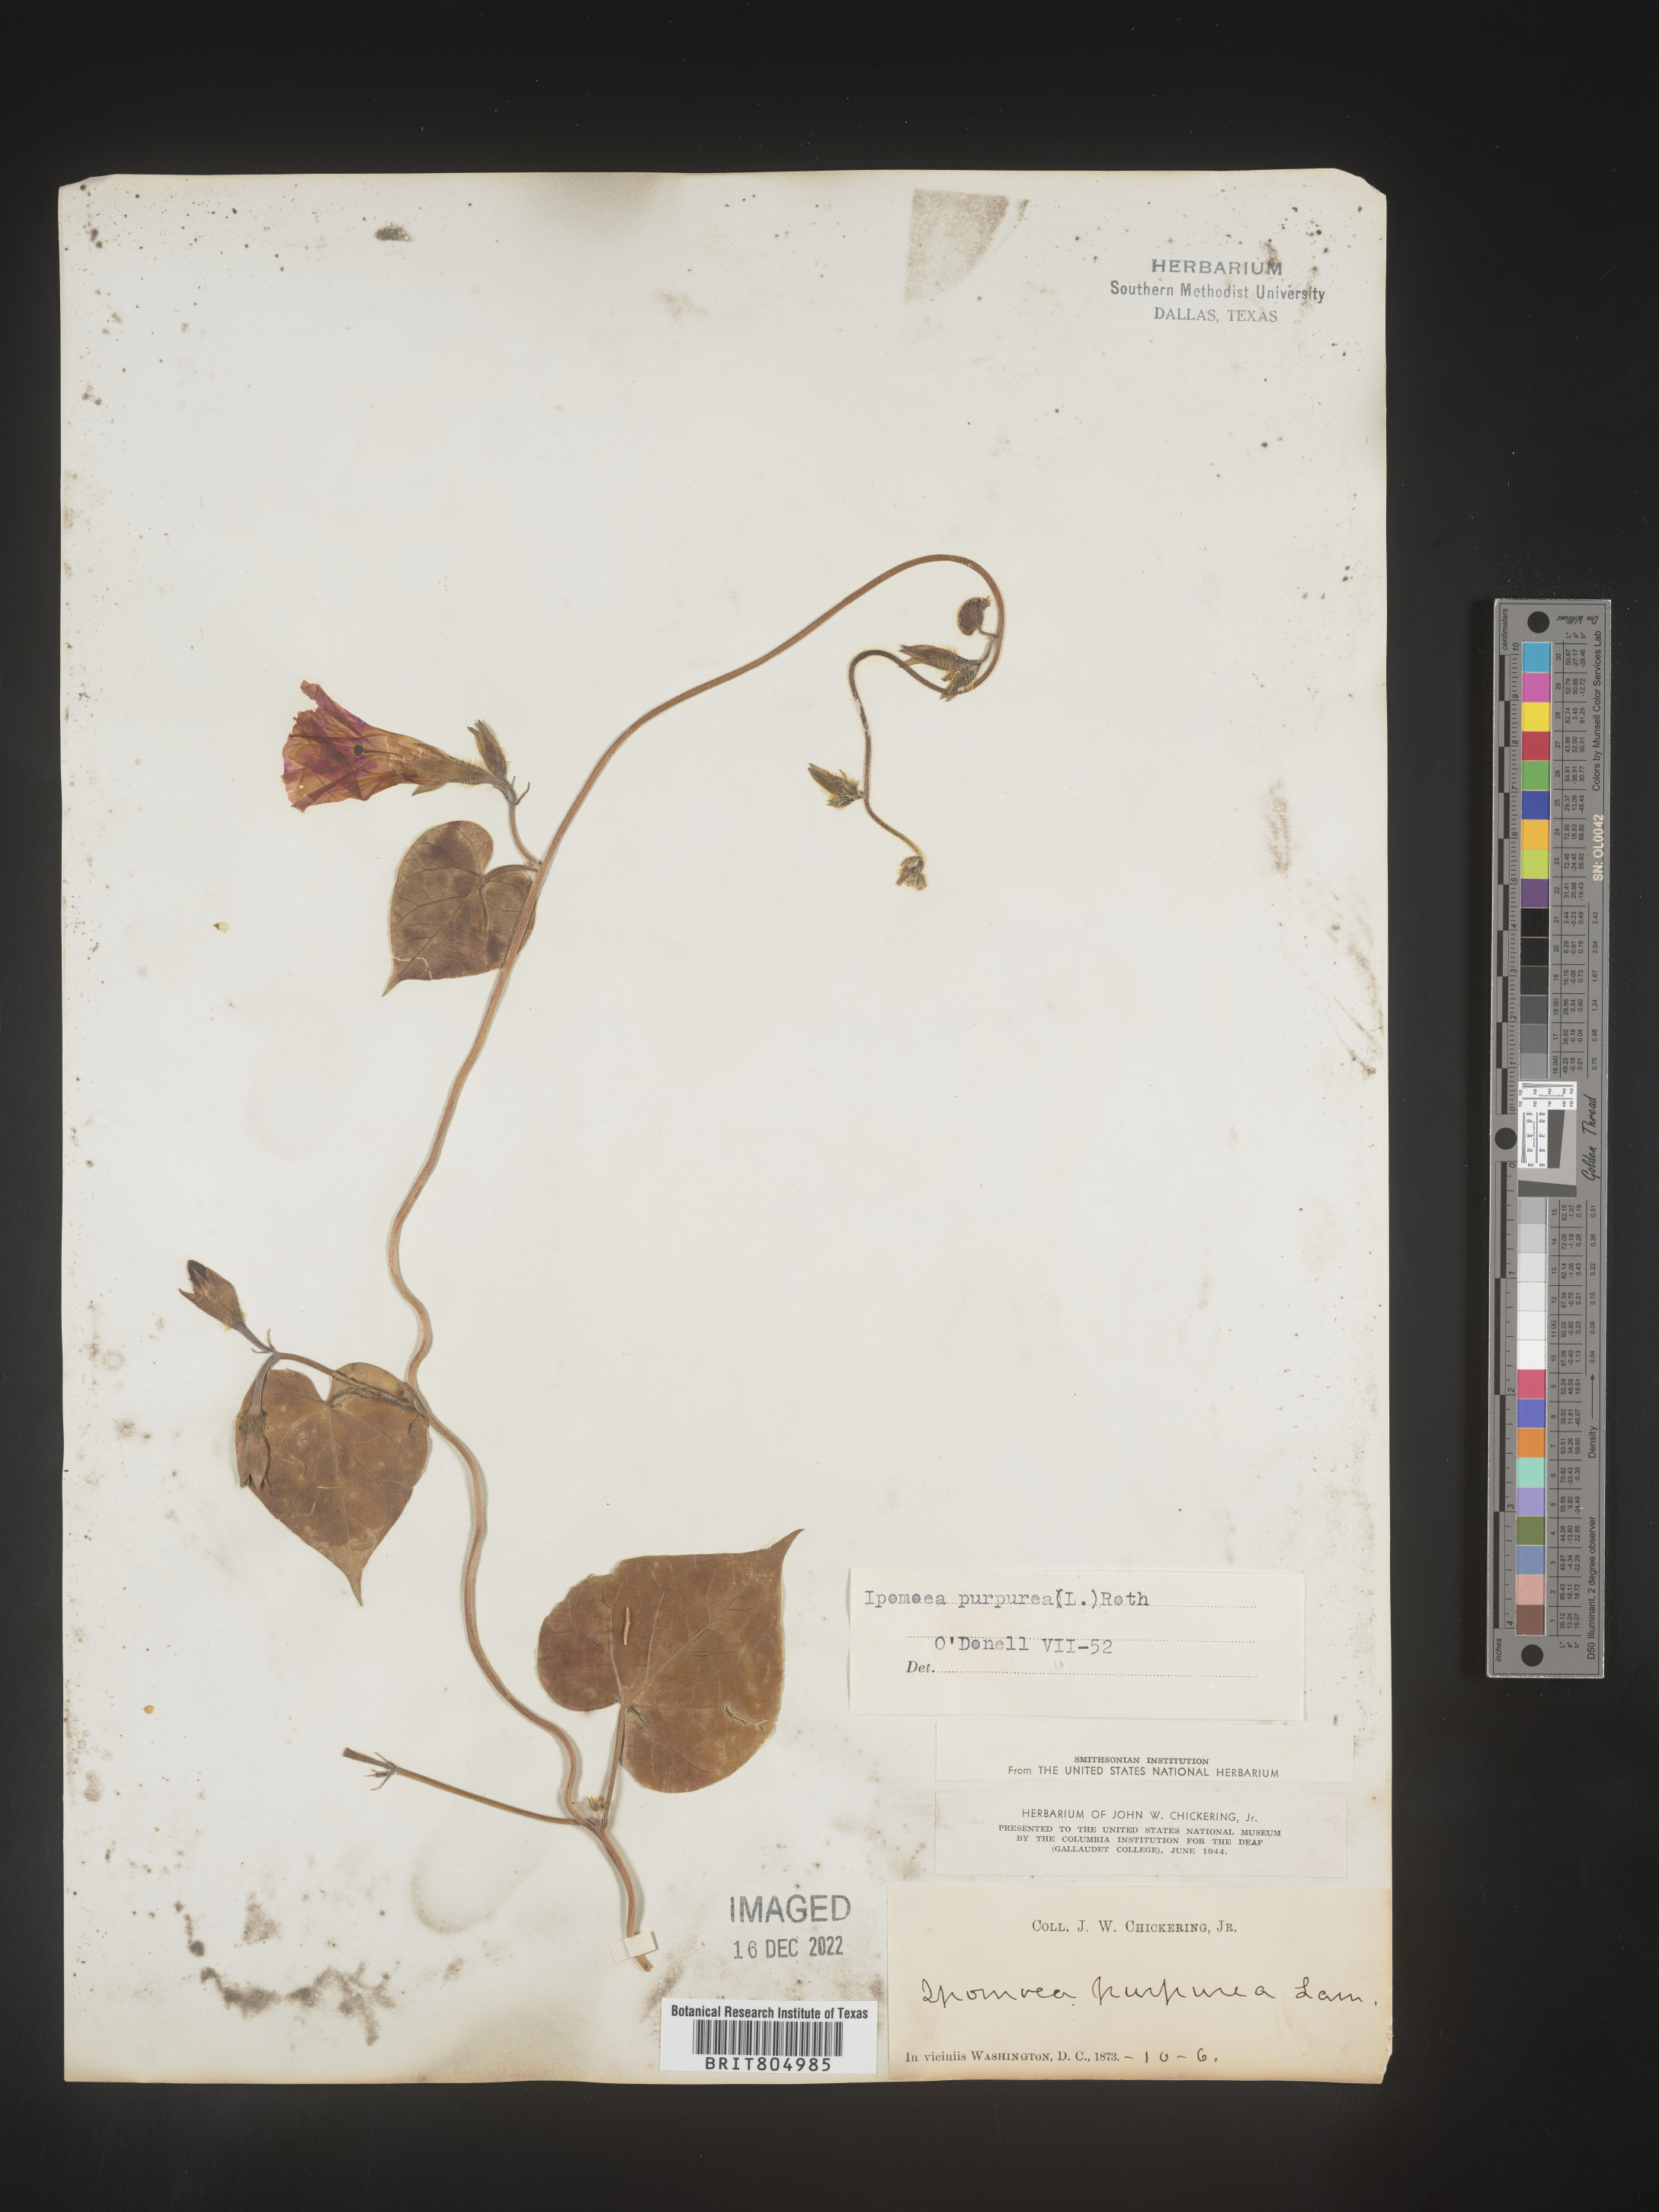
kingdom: Plantae
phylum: Tracheophyta
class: Magnoliopsida
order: Solanales
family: Convolvulaceae
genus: Ipomoea
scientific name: Ipomoea purpurea
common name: Common morning-glory
